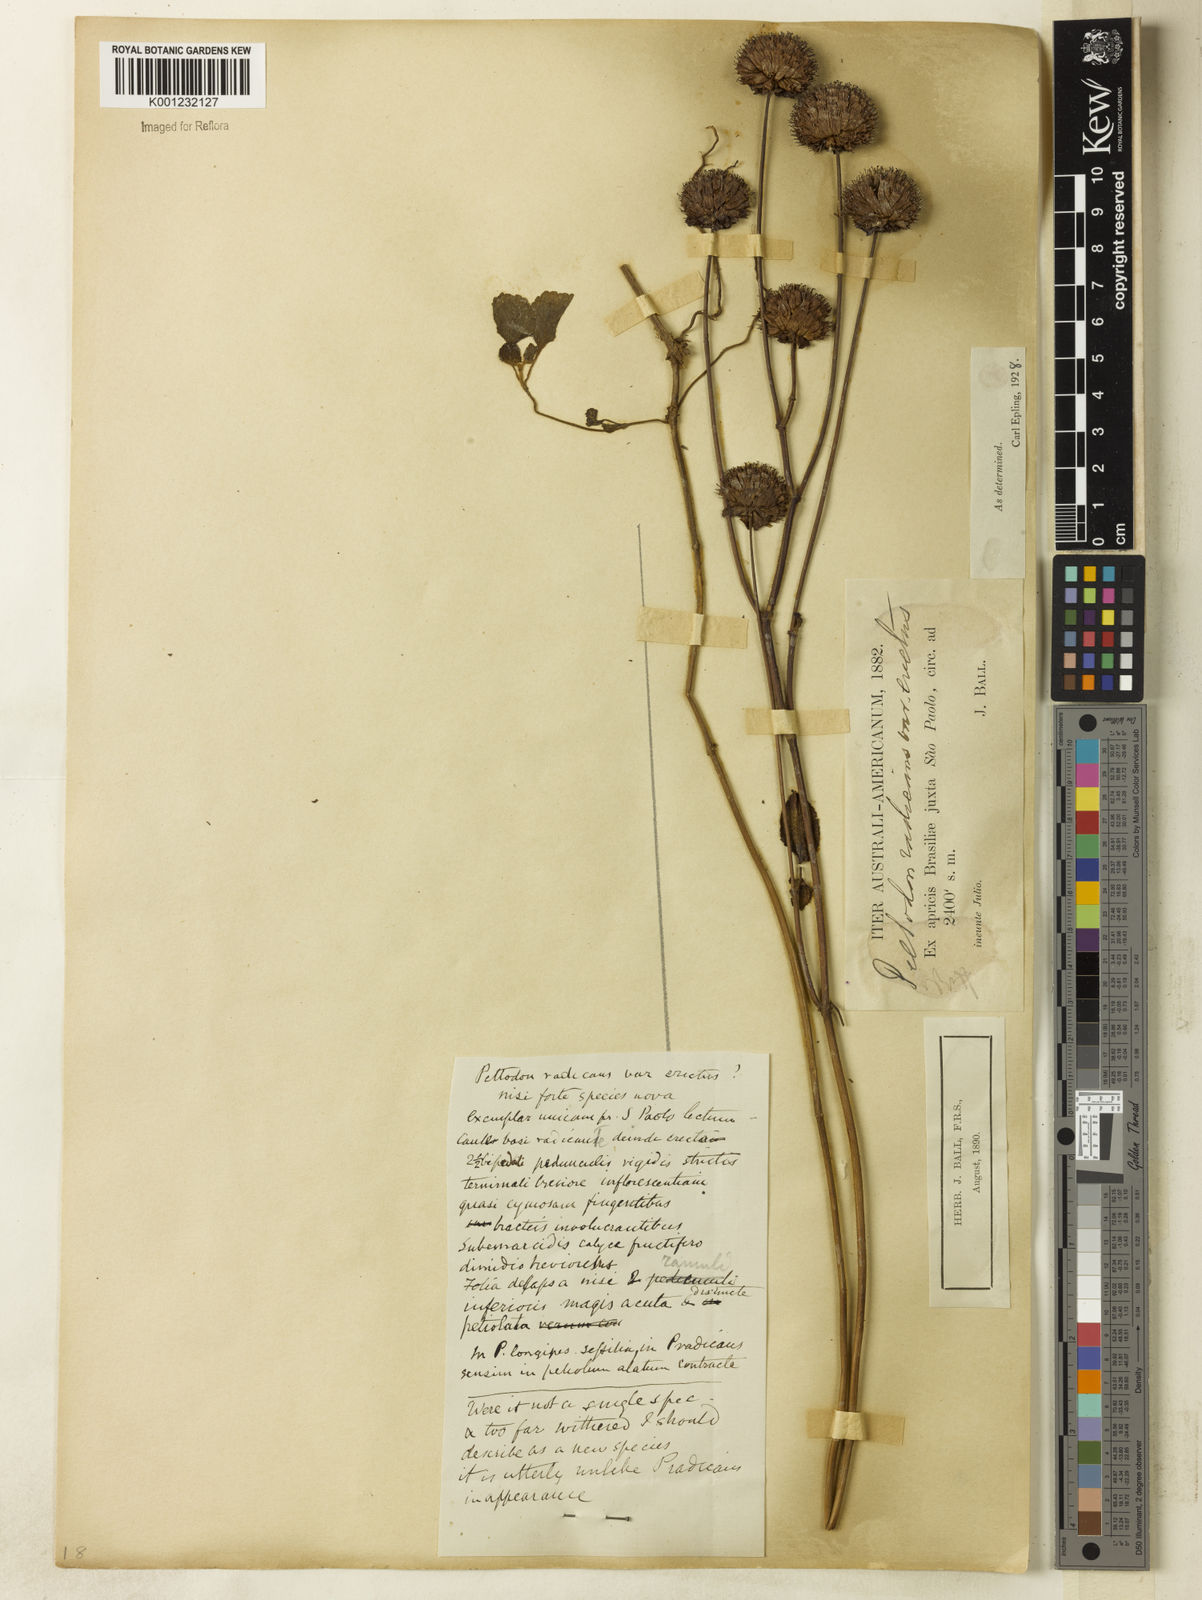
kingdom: Plantae
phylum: Tracheophyta
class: Magnoliopsida
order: Lamiales
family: Lamiaceae
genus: Hyptis
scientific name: Hyptis radicans
